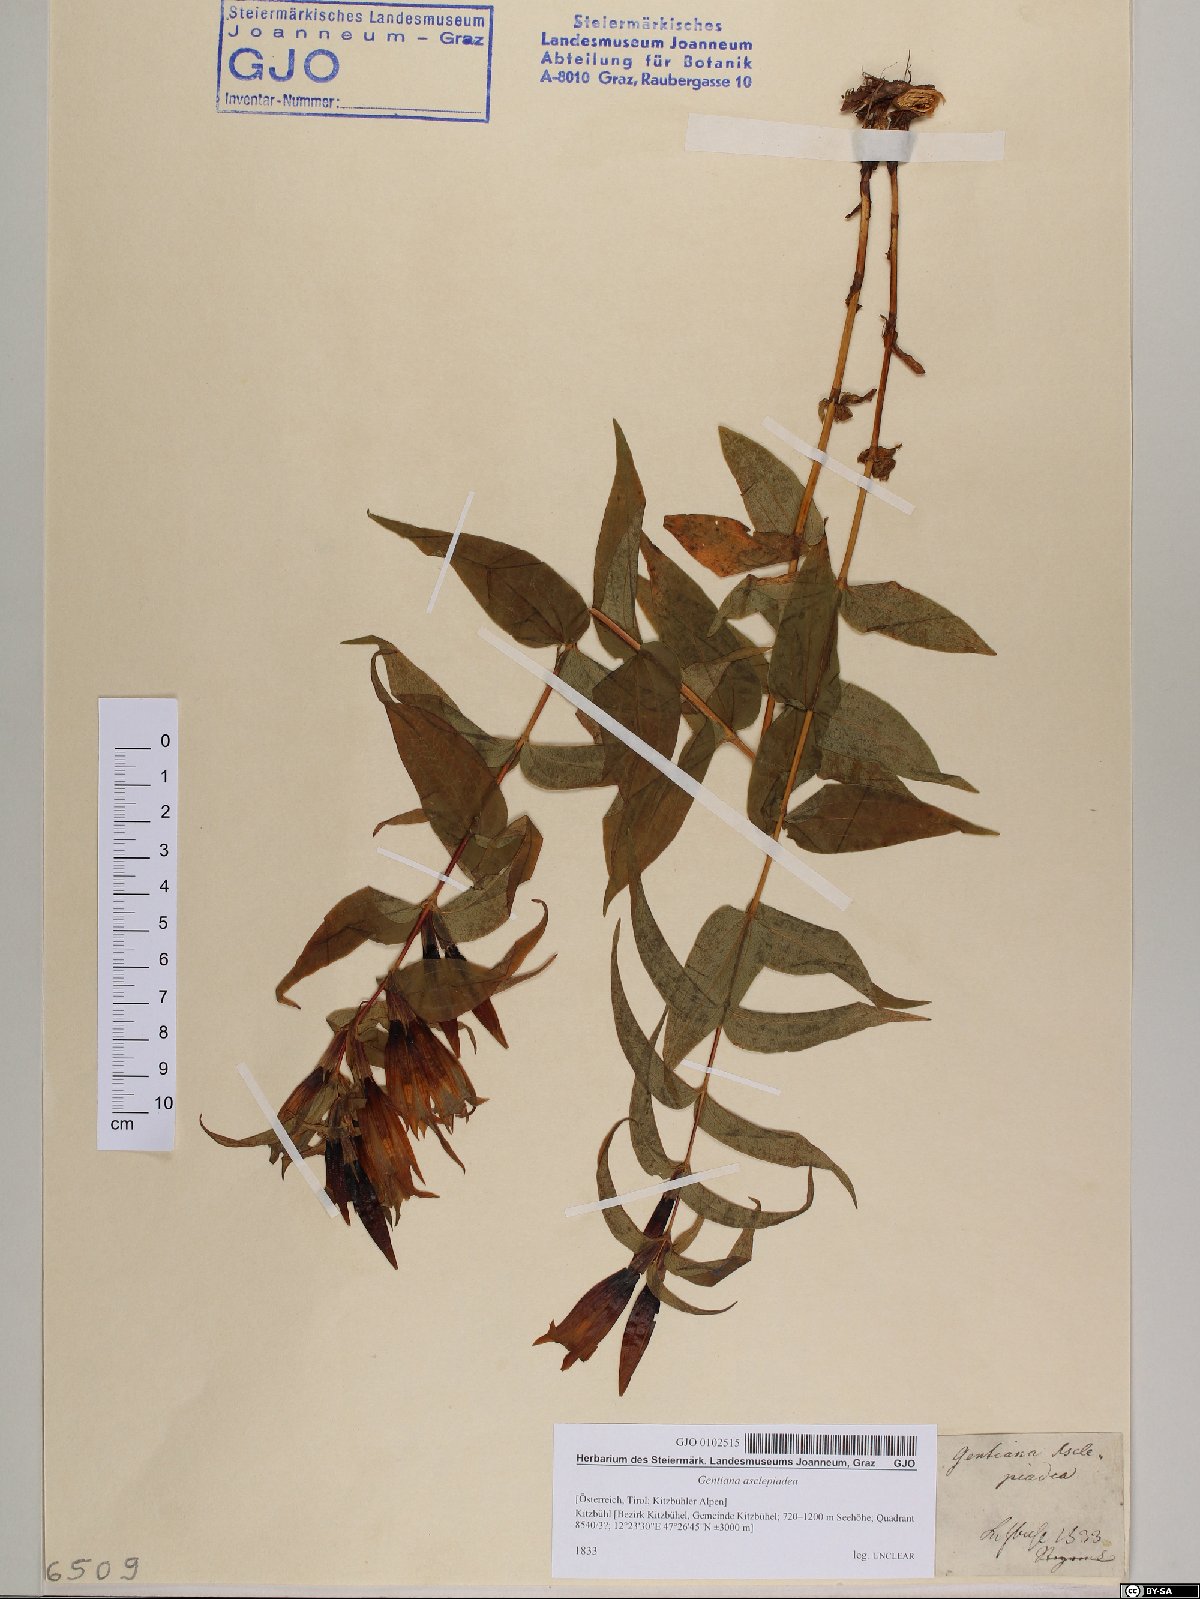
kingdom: Plantae
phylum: Tracheophyta
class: Magnoliopsida
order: Gentianales
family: Gentianaceae
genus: Gentiana
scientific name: Gentiana asclepiadea
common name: Willow gentian
